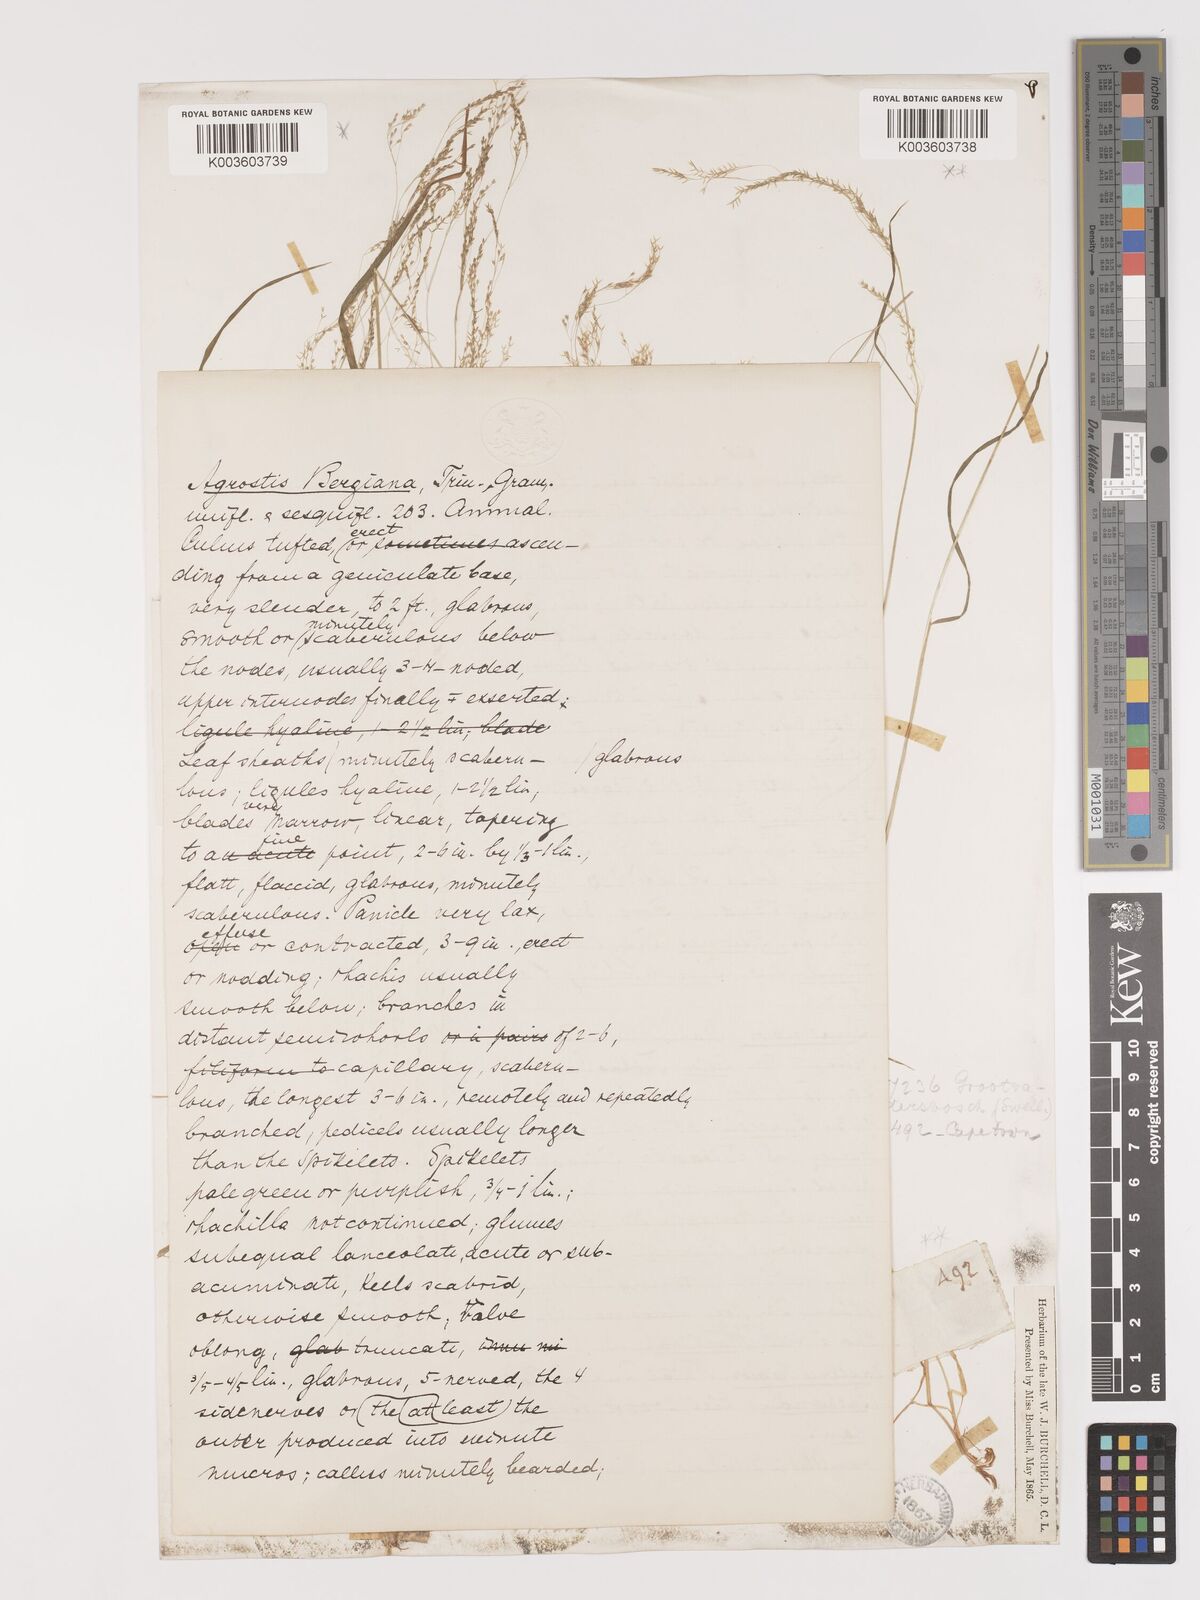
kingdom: Plantae
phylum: Tracheophyta
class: Liliopsida
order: Poales
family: Poaceae
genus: Agrostis
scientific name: Agrostis bergiana
